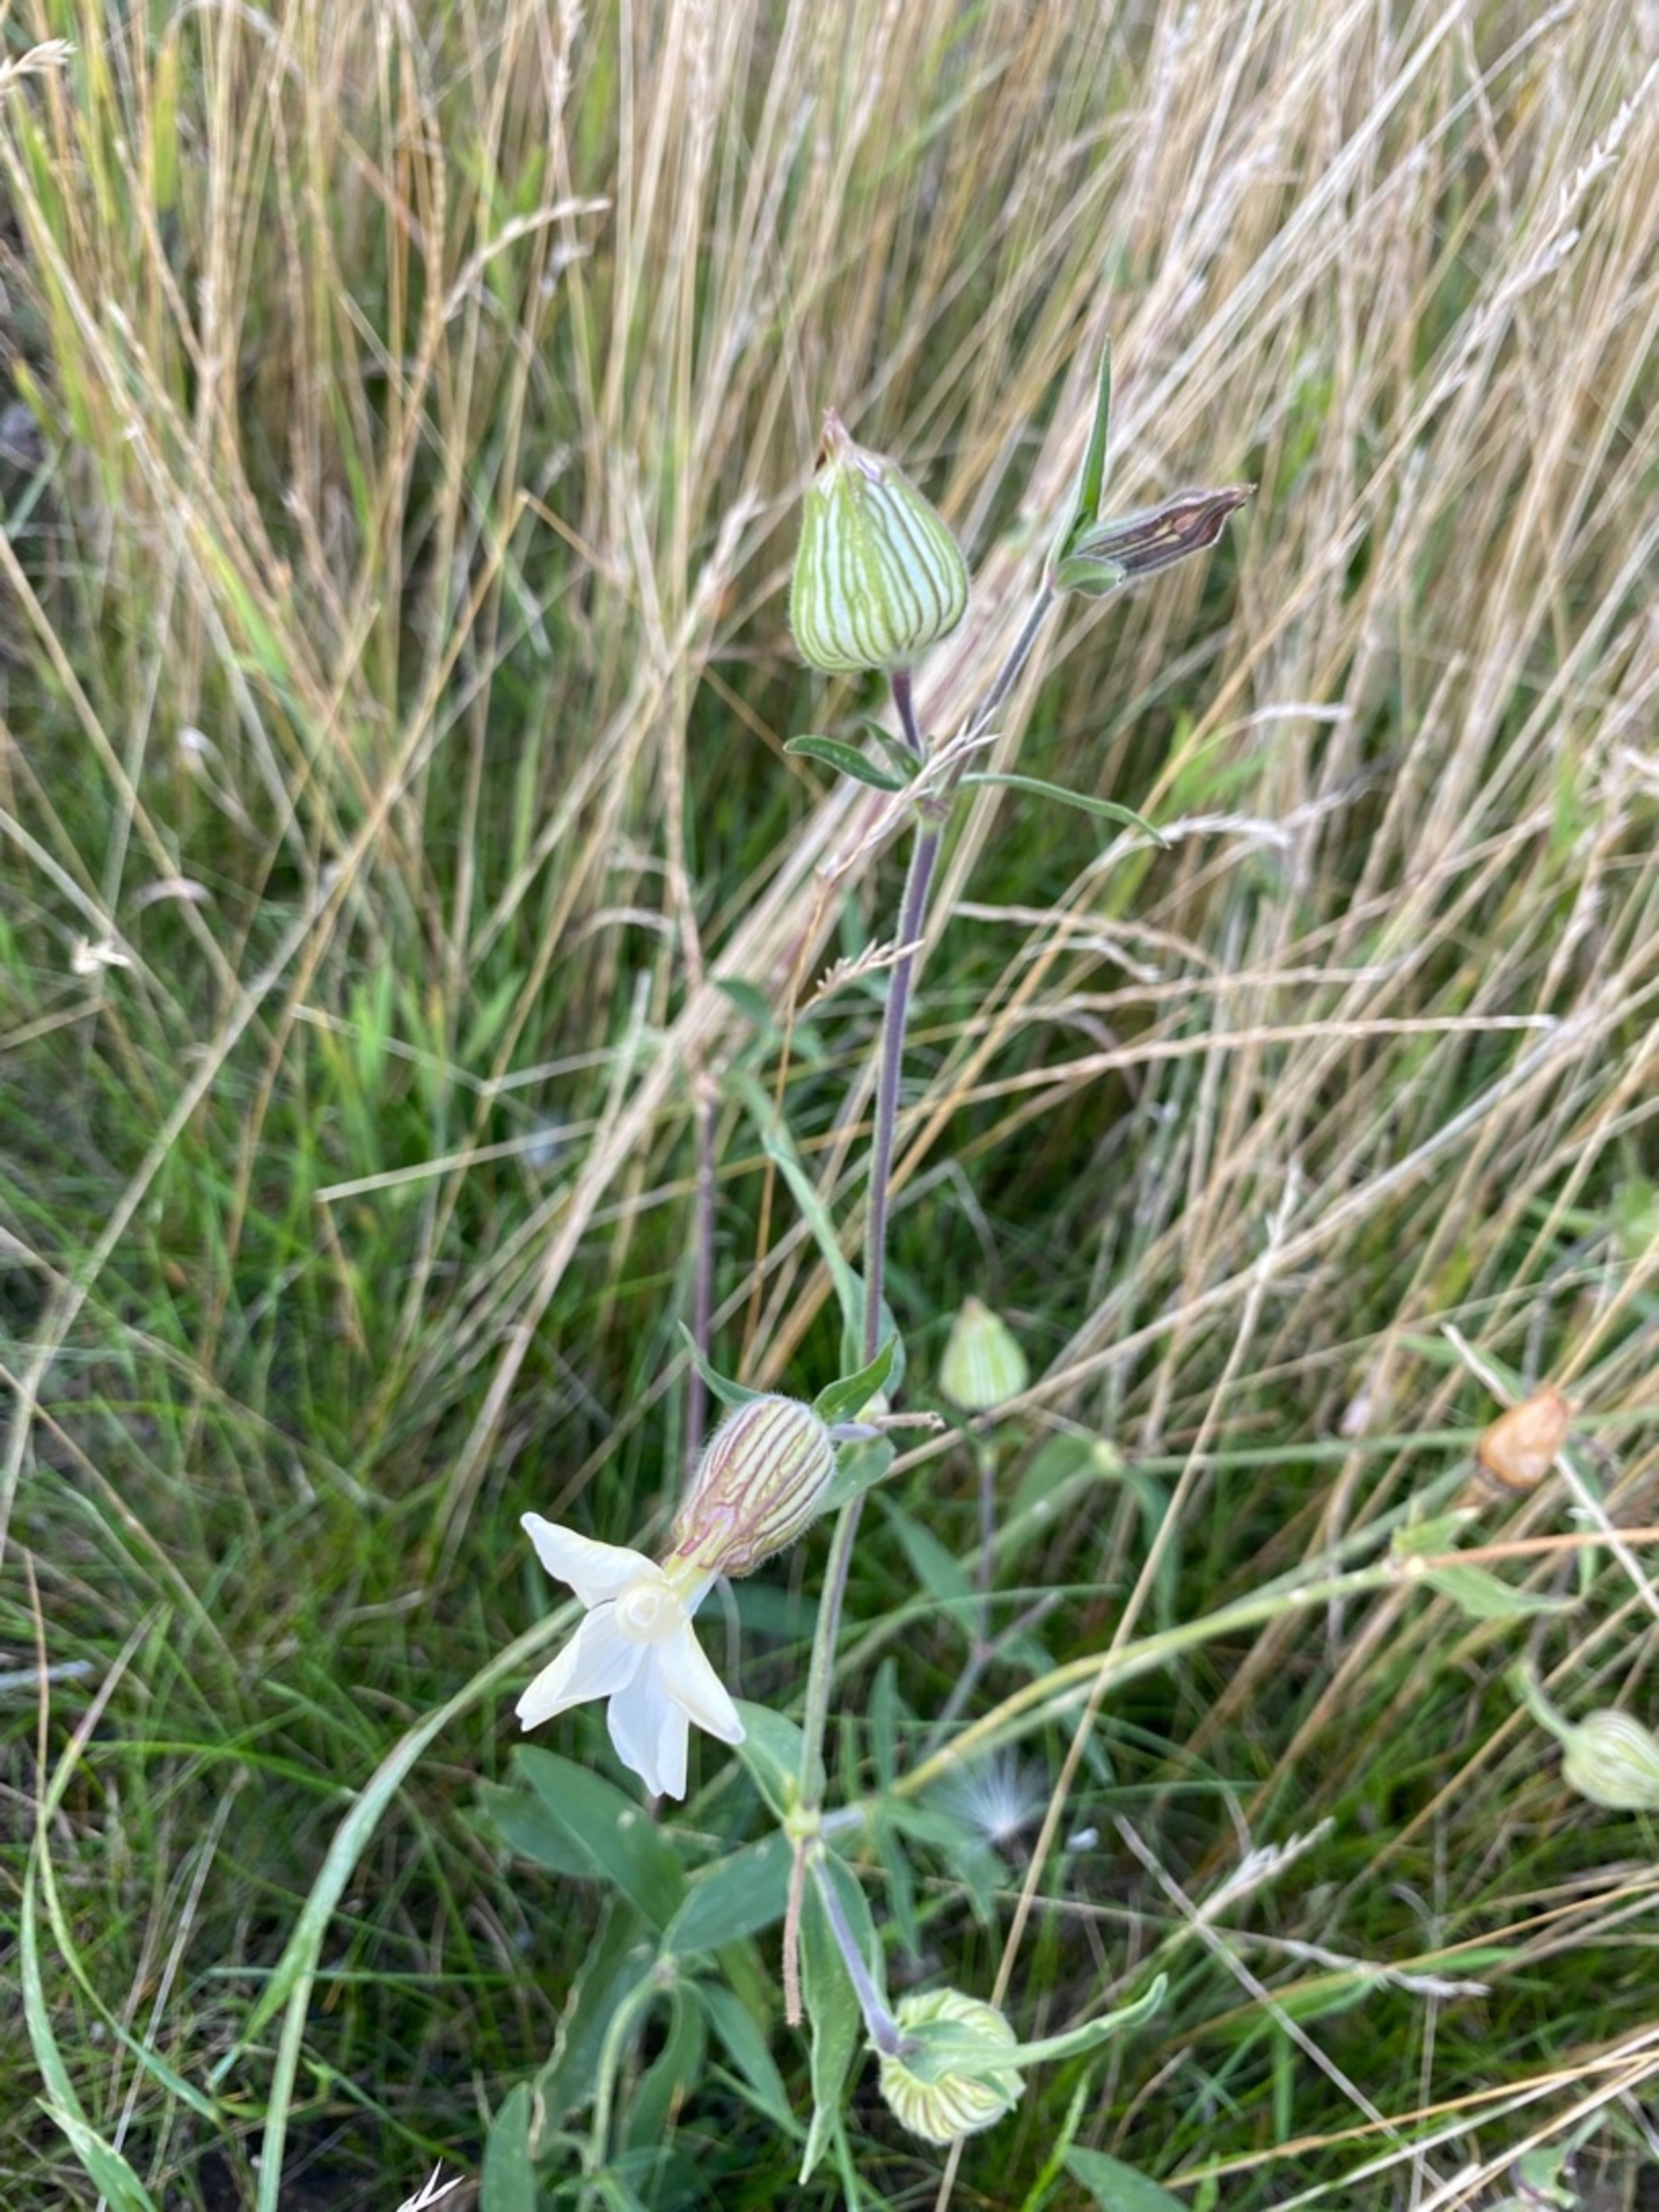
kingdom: Plantae
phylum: Tracheophyta
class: Magnoliopsida
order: Caryophyllales
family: Caryophyllaceae
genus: Silene
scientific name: Silene latifolia
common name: Aftenpragtstjerne
